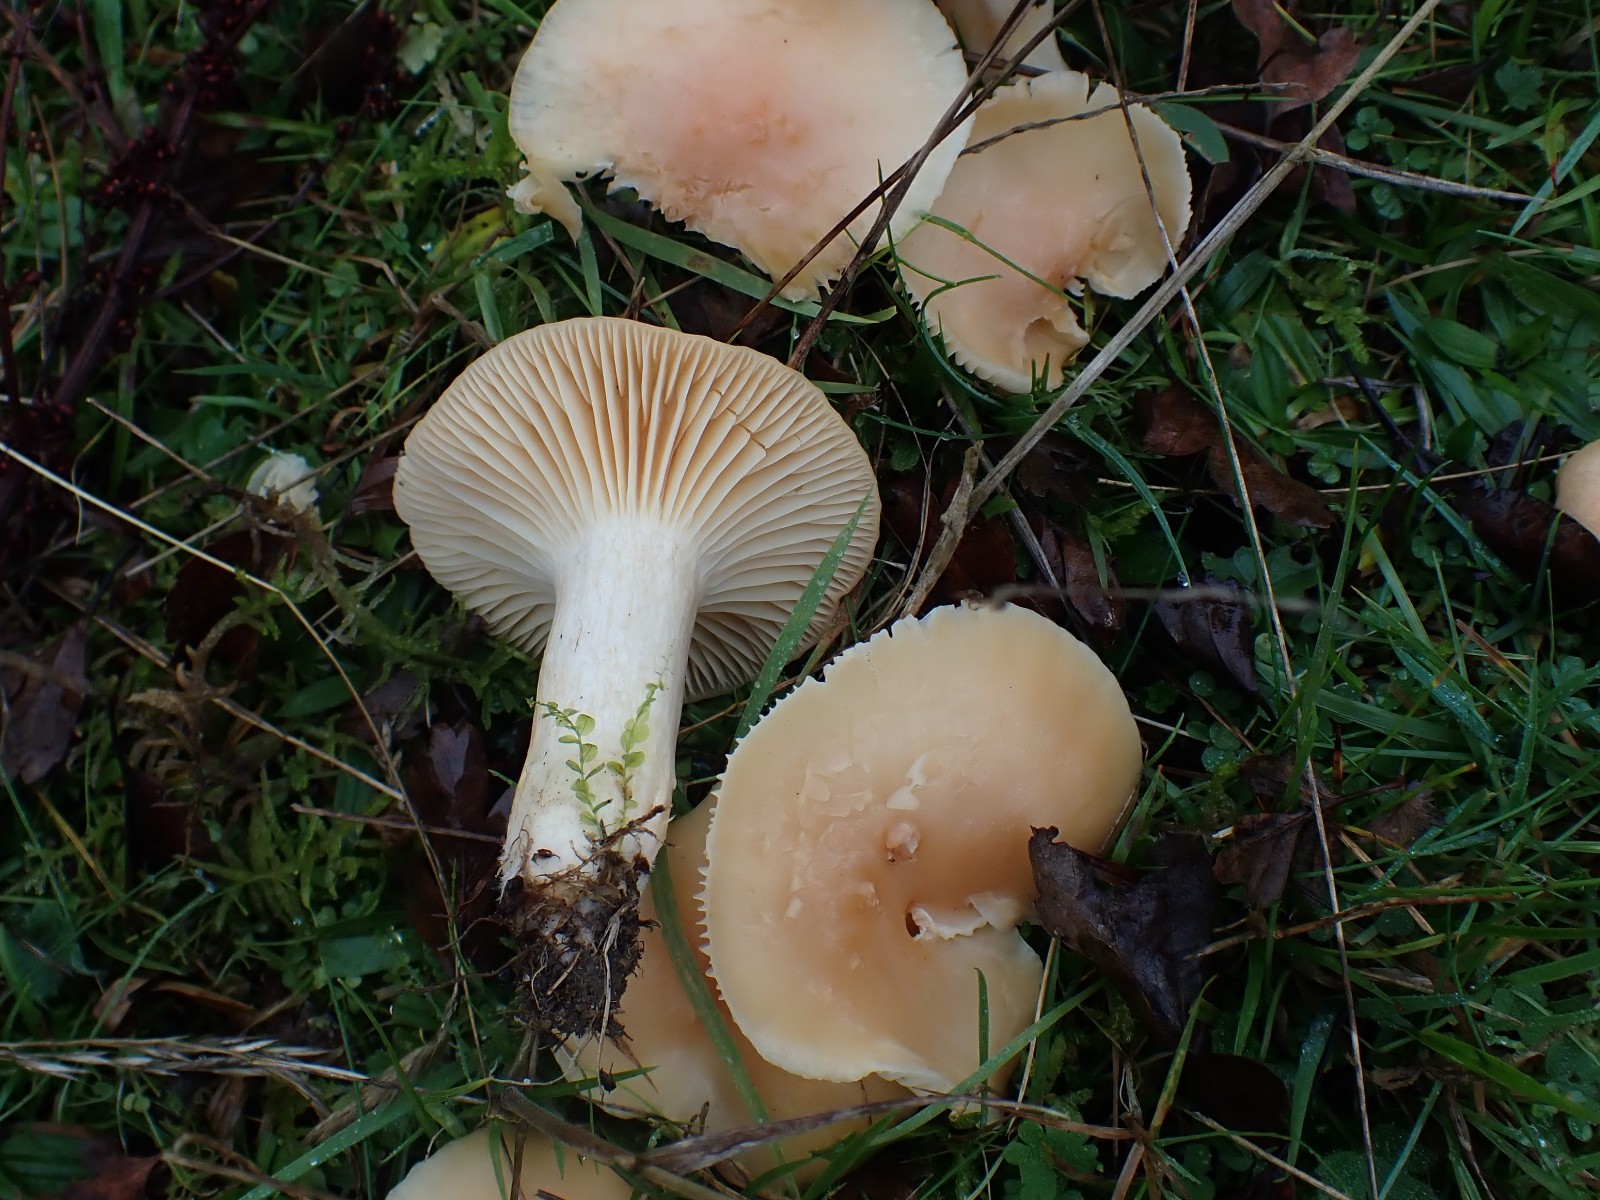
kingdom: Fungi
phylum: Basidiomycota
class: Agaricomycetes
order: Agaricales
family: Hygrophoraceae
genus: Cuphophyllus
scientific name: Cuphophyllus pratensis
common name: eng-vokshat
